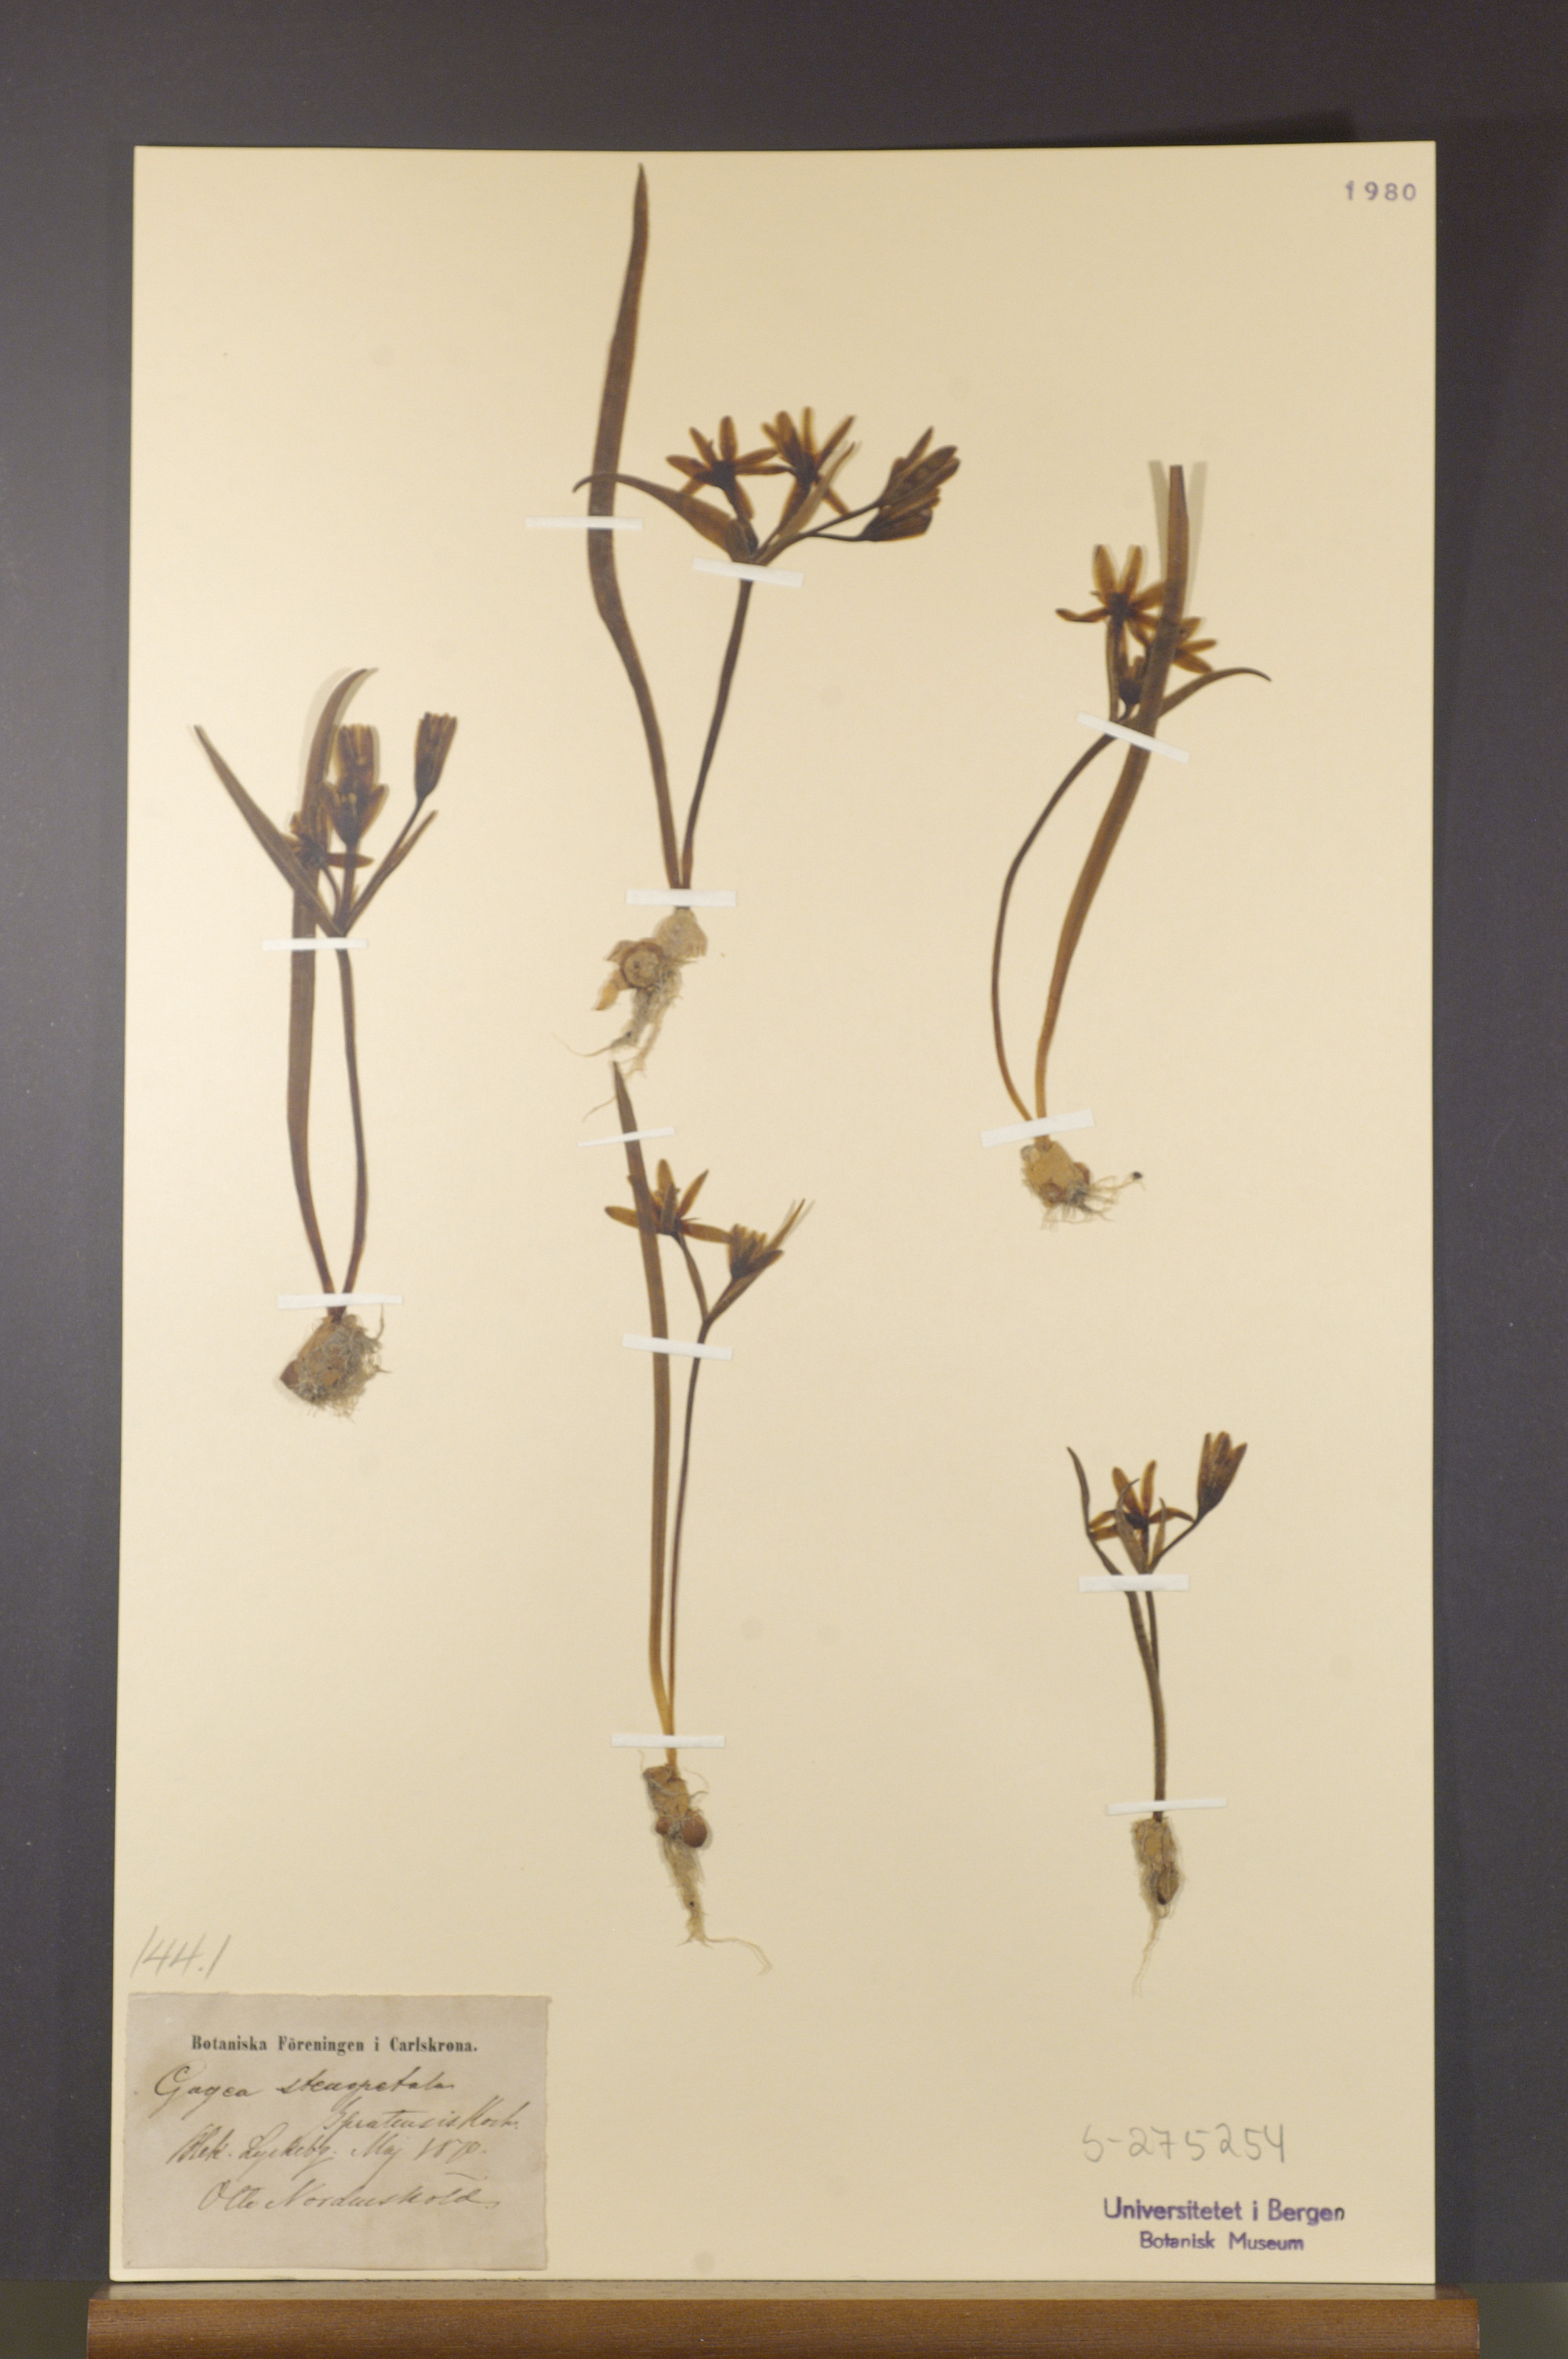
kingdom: Plantae
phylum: Tracheophyta
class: Liliopsida
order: Liliales
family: Liliaceae
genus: Gagea
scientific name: Gagea pratensis
